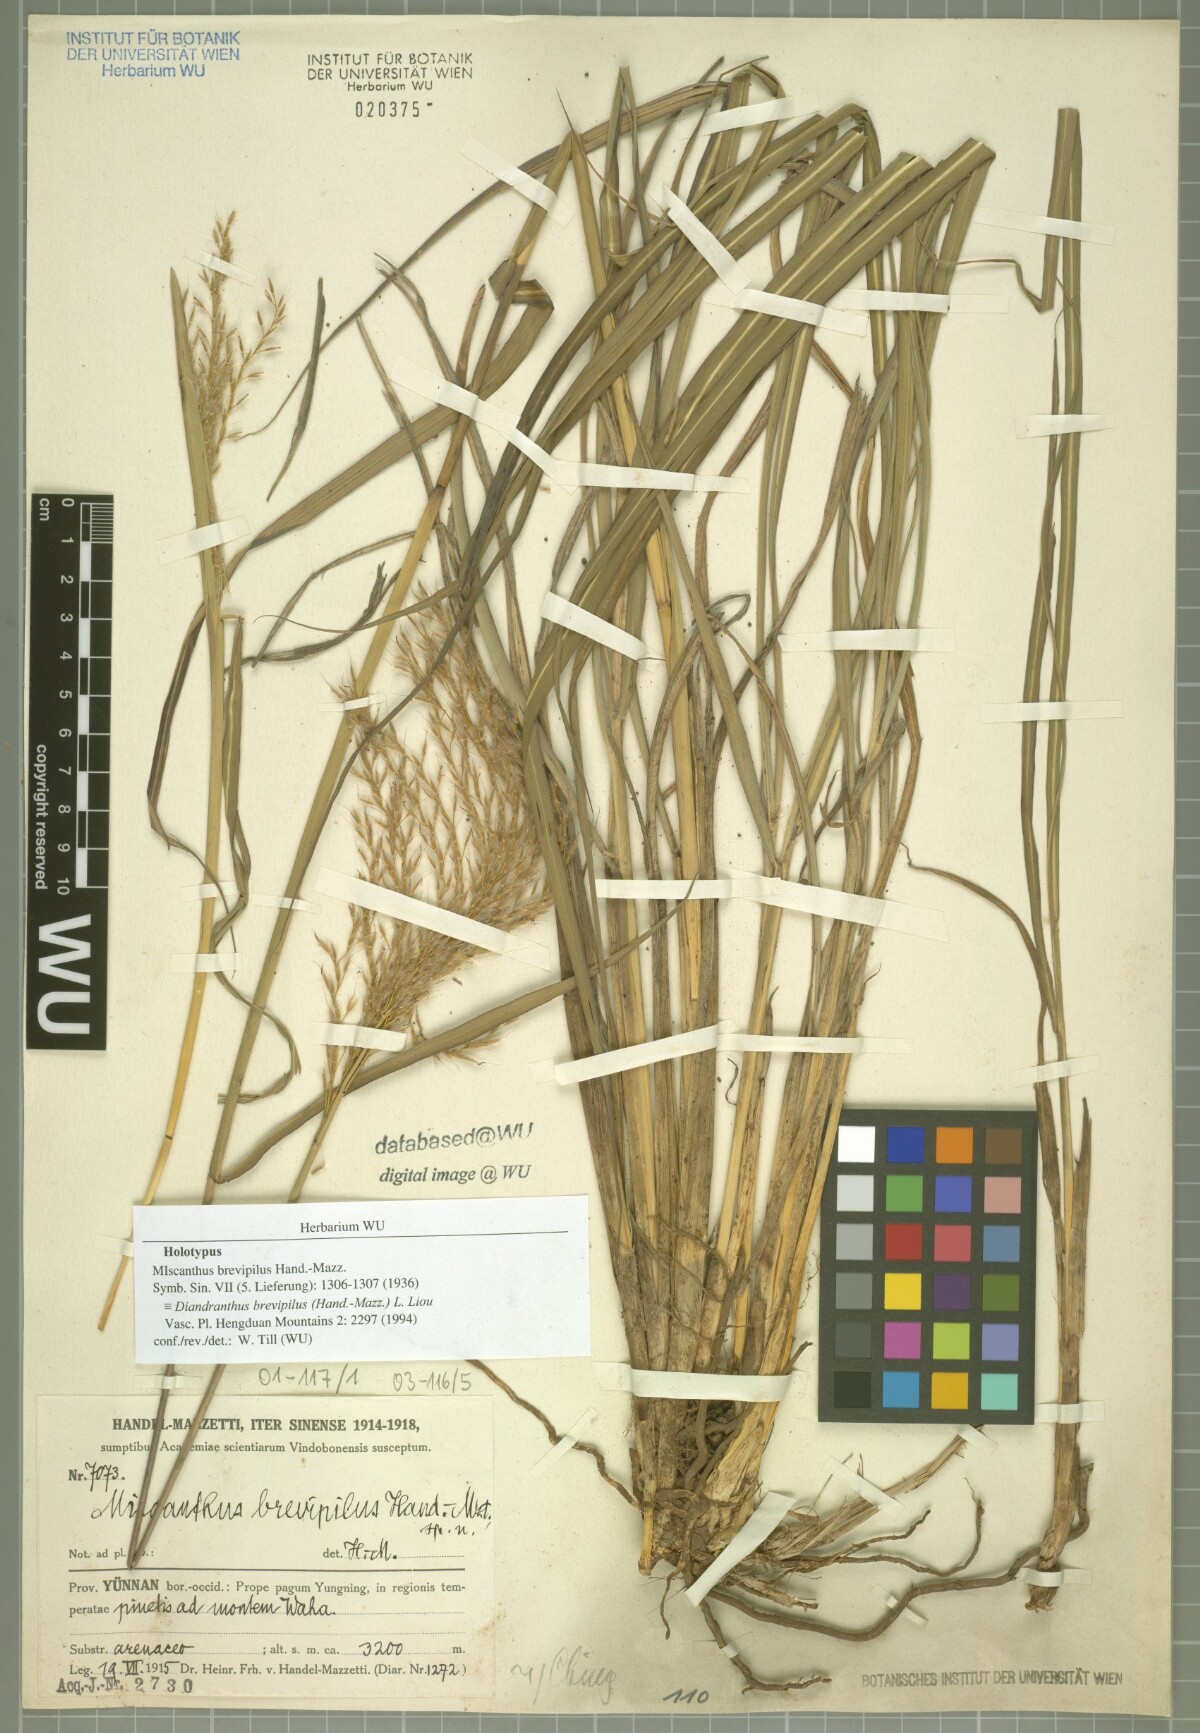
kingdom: Plantae
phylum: Tracheophyta
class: Liliopsida
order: Poales
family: Poaceae
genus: Miscanthus
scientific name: Miscanthus nudipes
